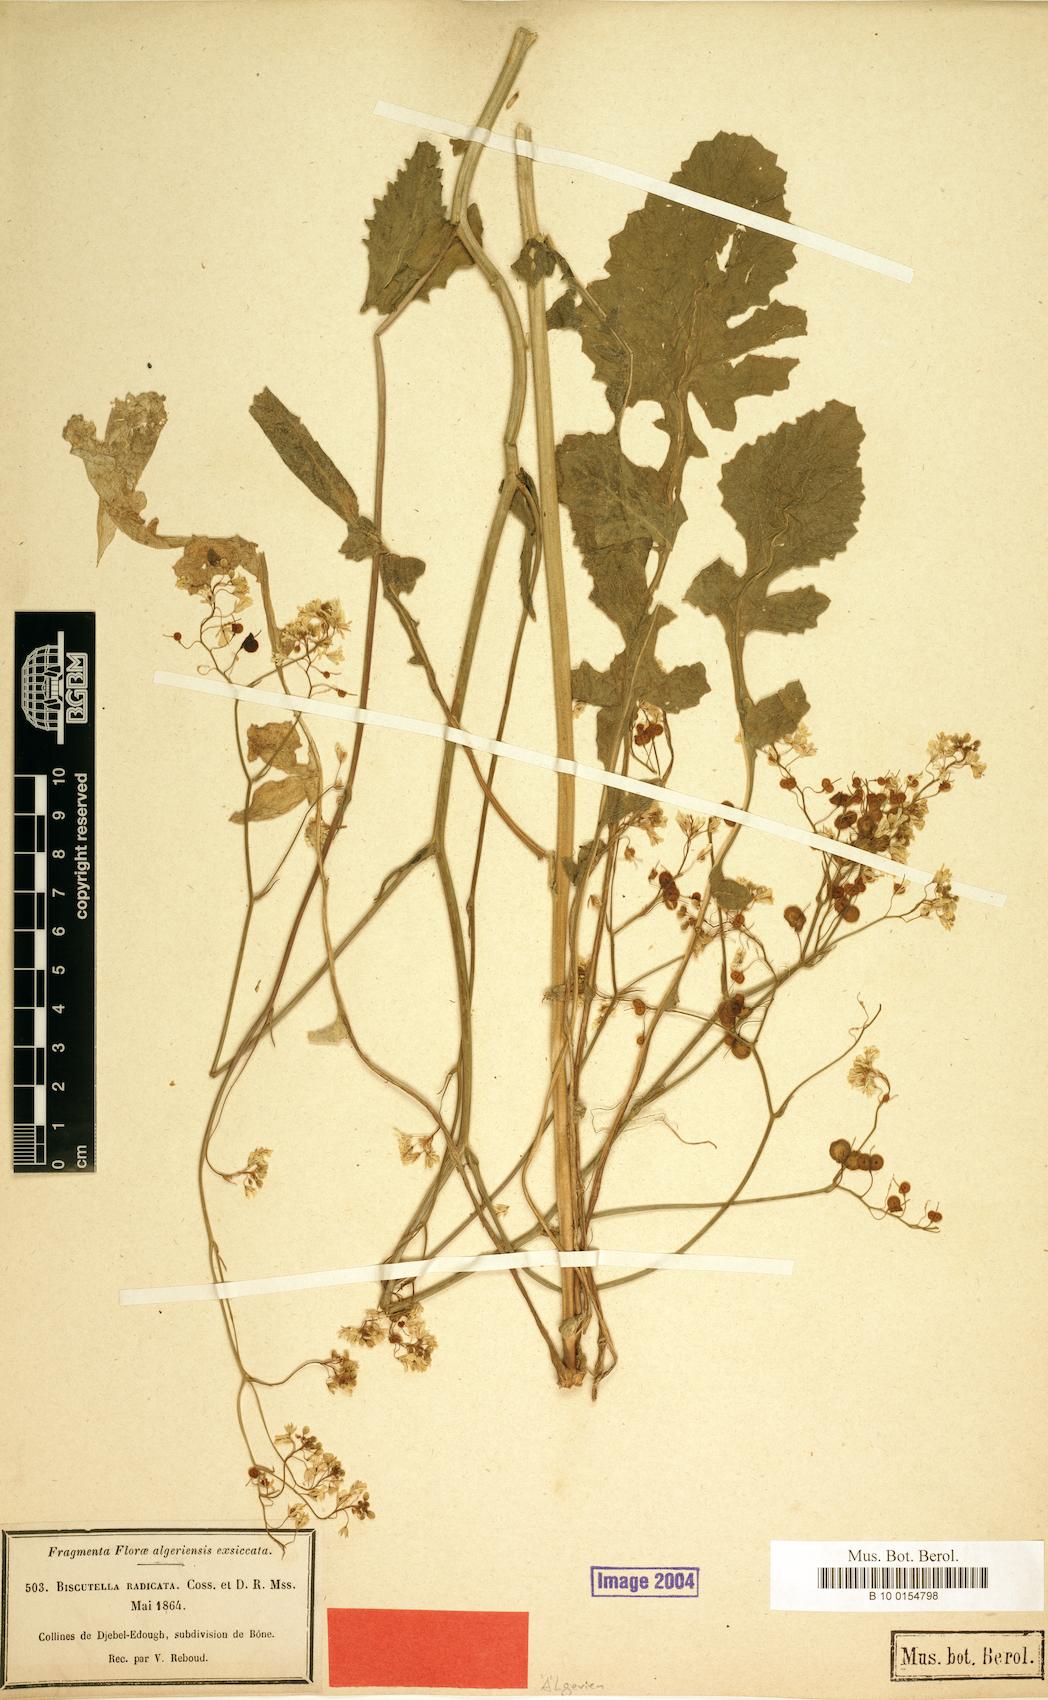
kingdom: Plantae
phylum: Tracheophyta
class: Magnoliopsida
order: Brassicales
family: Brassicaceae
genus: Biscutella
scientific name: Biscutella raphanifolia
